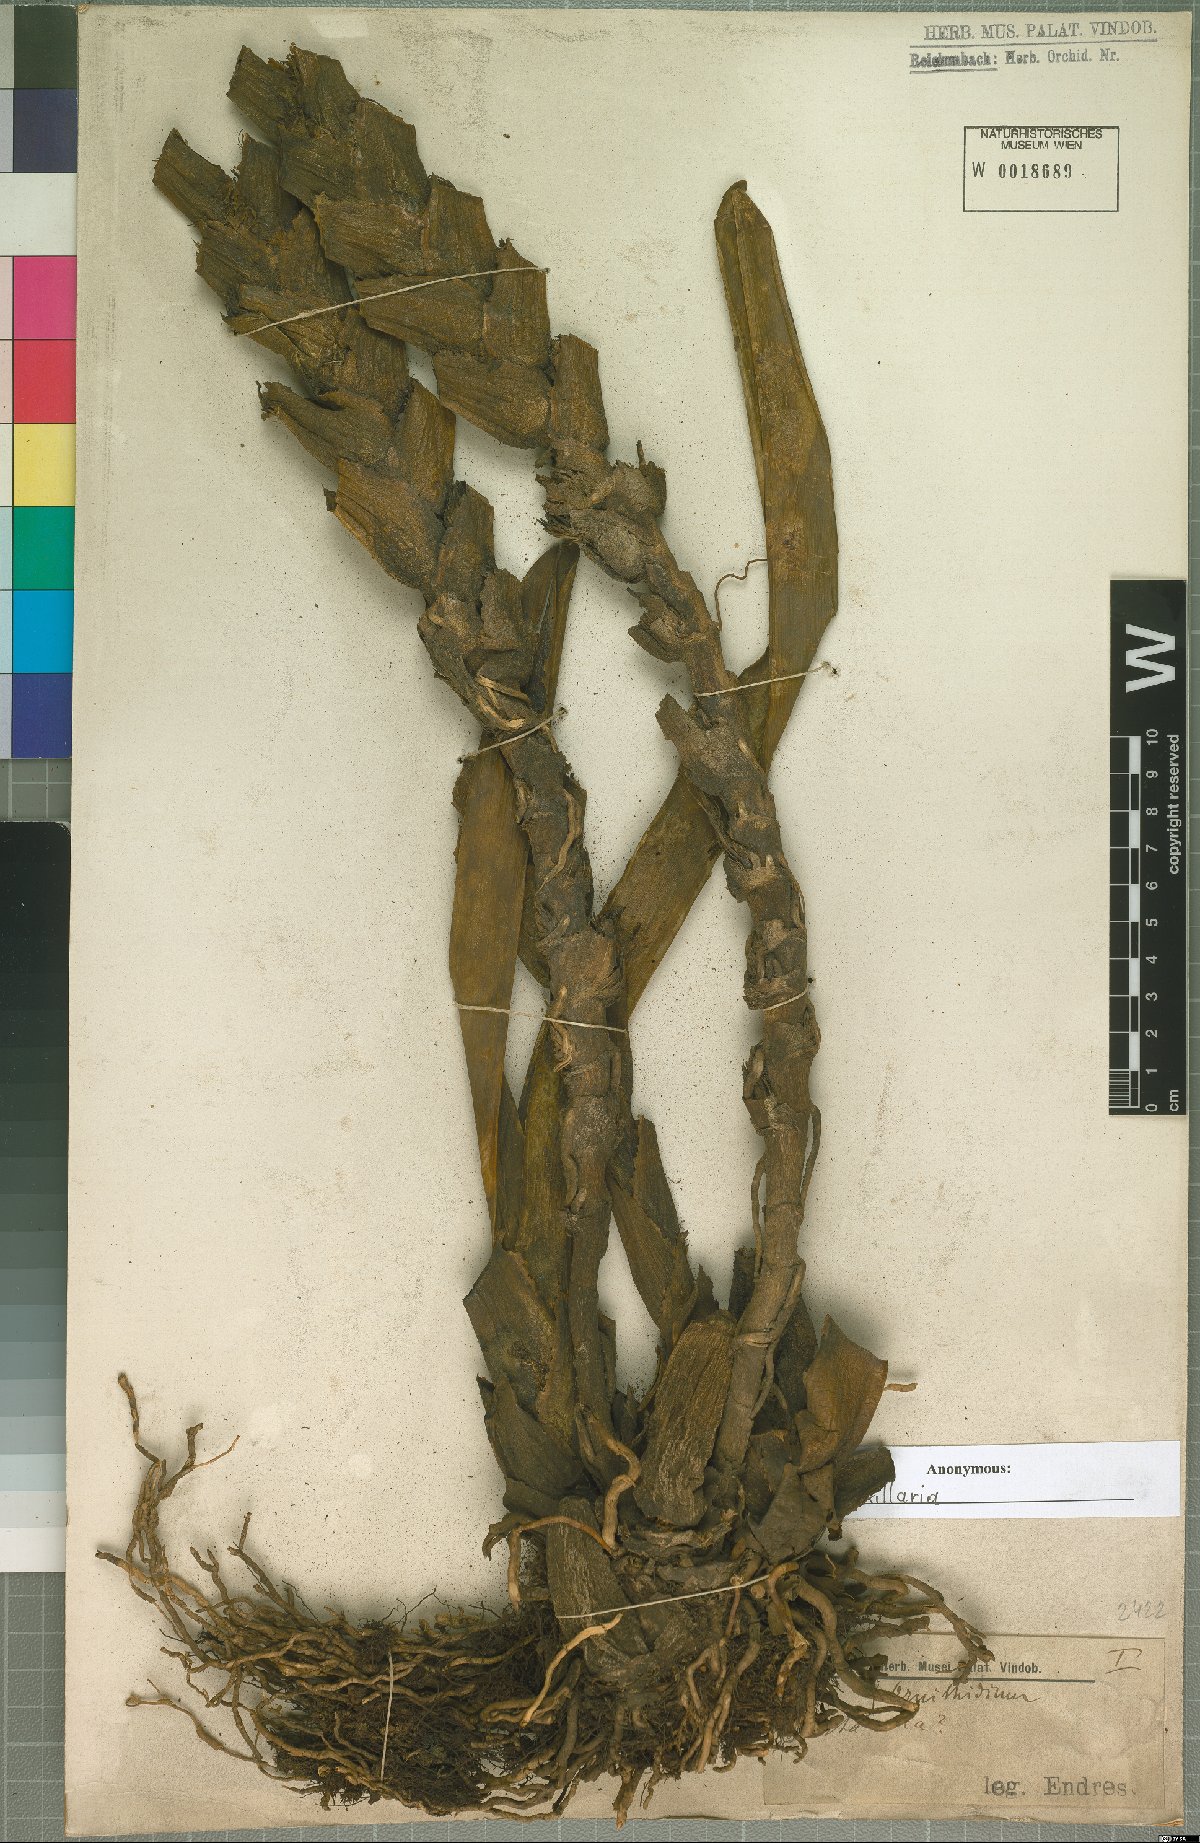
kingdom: Plantae
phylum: Tracheophyta
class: Liliopsida
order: Asparagales
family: Orchidaceae
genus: Maxillaria
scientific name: Maxillaria
